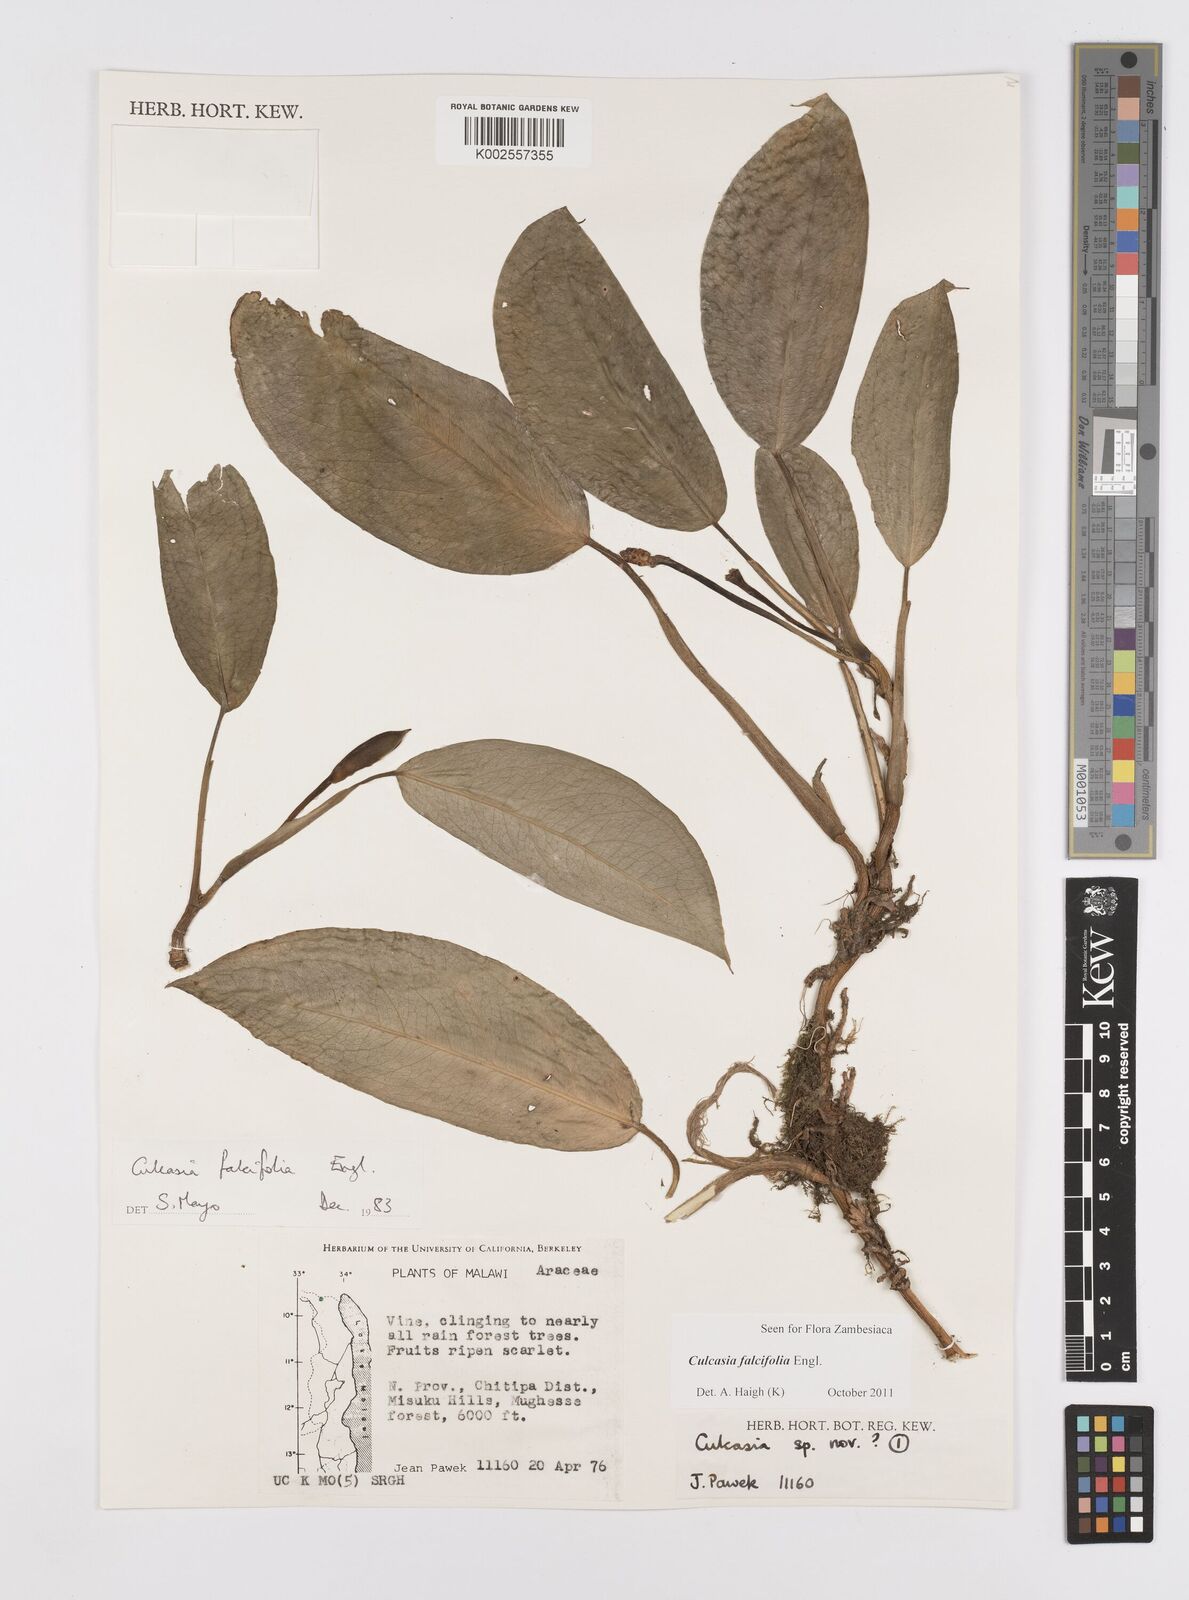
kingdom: Plantae
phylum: Tracheophyta
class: Liliopsida
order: Alismatales
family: Araceae
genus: Culcasia
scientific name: Culcasia falcifolia
